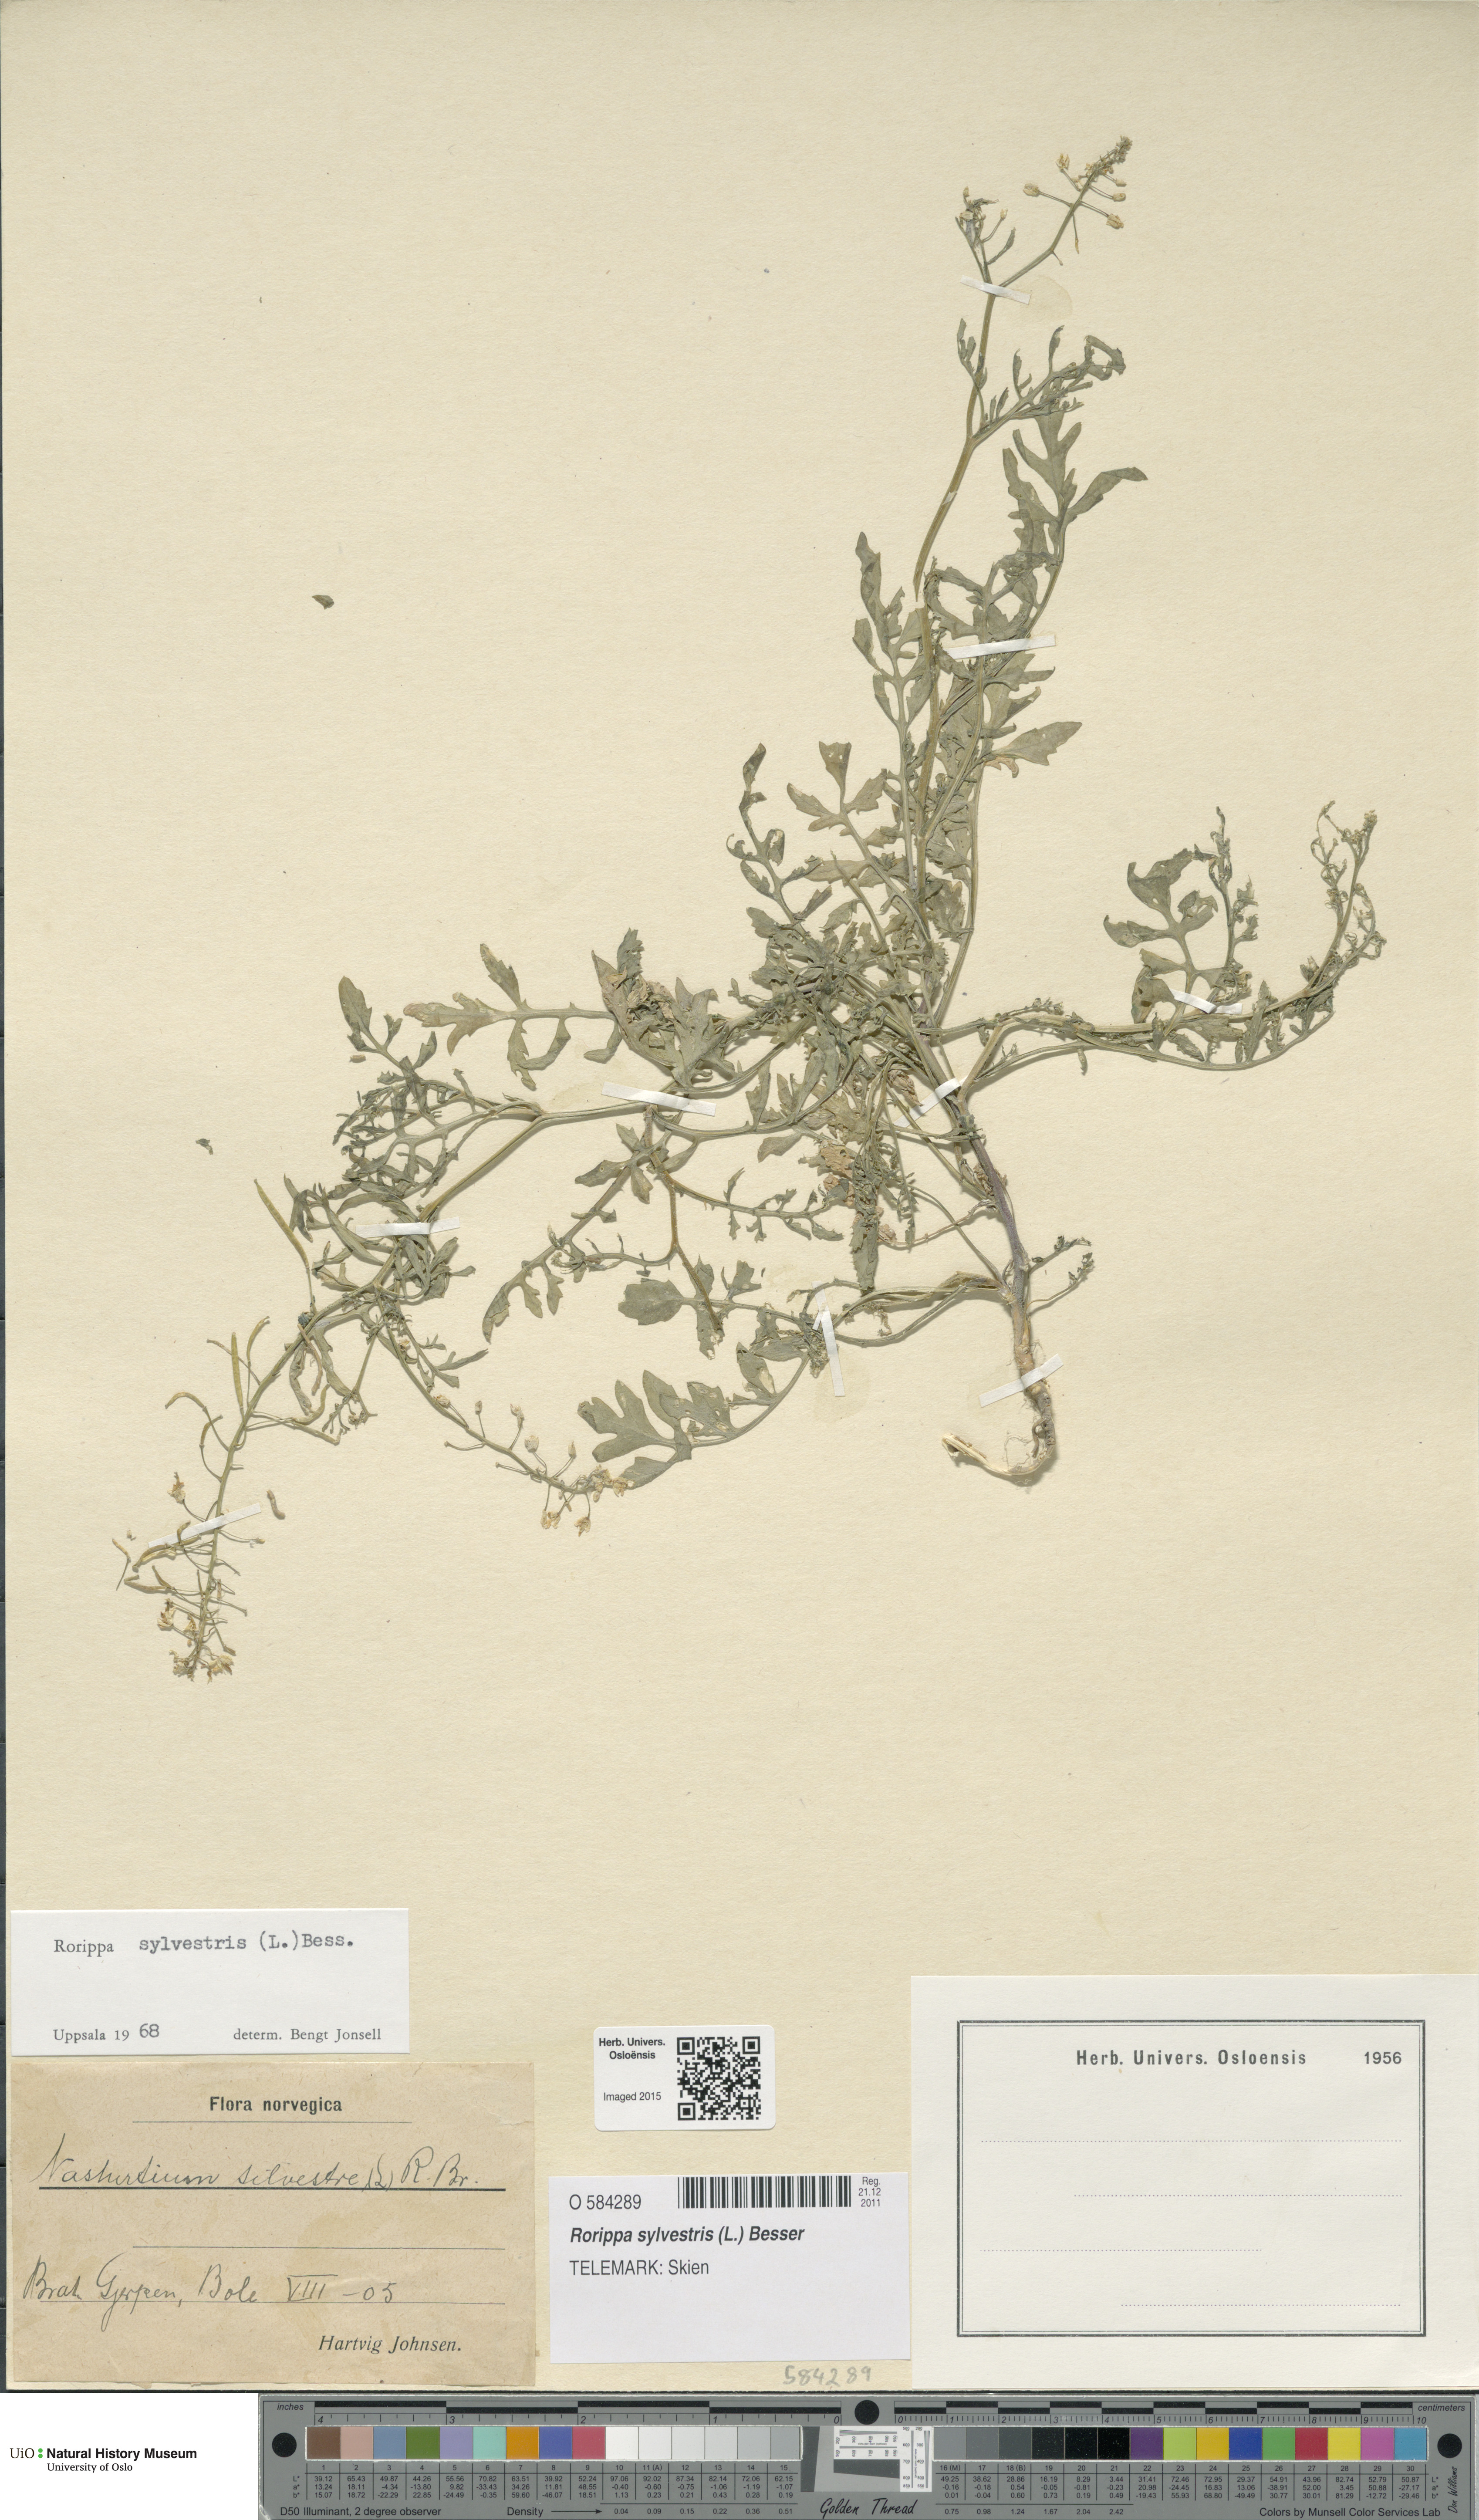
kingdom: Plantae
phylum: Tracheophyta
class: Magnoliopsida
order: Brassicales
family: Brassicaceae
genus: Rorippa
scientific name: Rorippa sylvestris
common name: Creeping yellowcress
